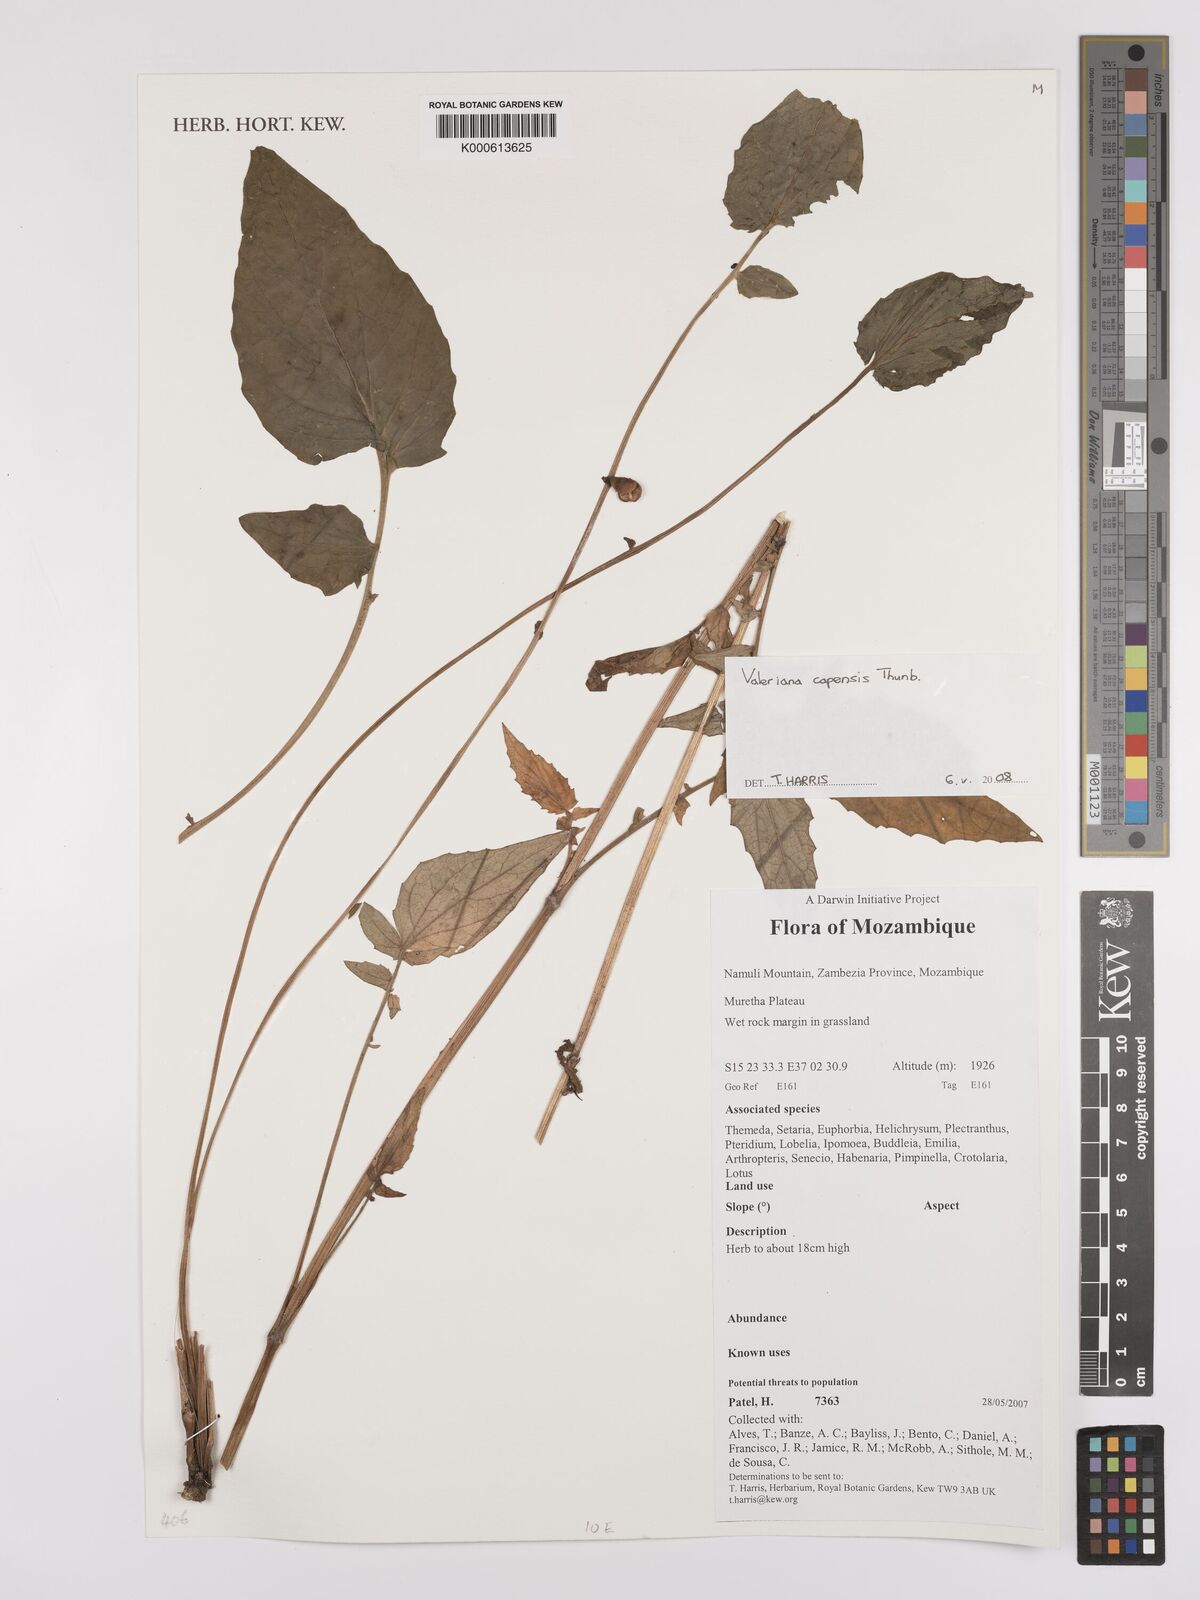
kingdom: Plantae
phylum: Tracheophyta
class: Magnoliopsida
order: Dipsacales
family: Caprifoliaceae
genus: Valeriana
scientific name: Valeriana capensis
